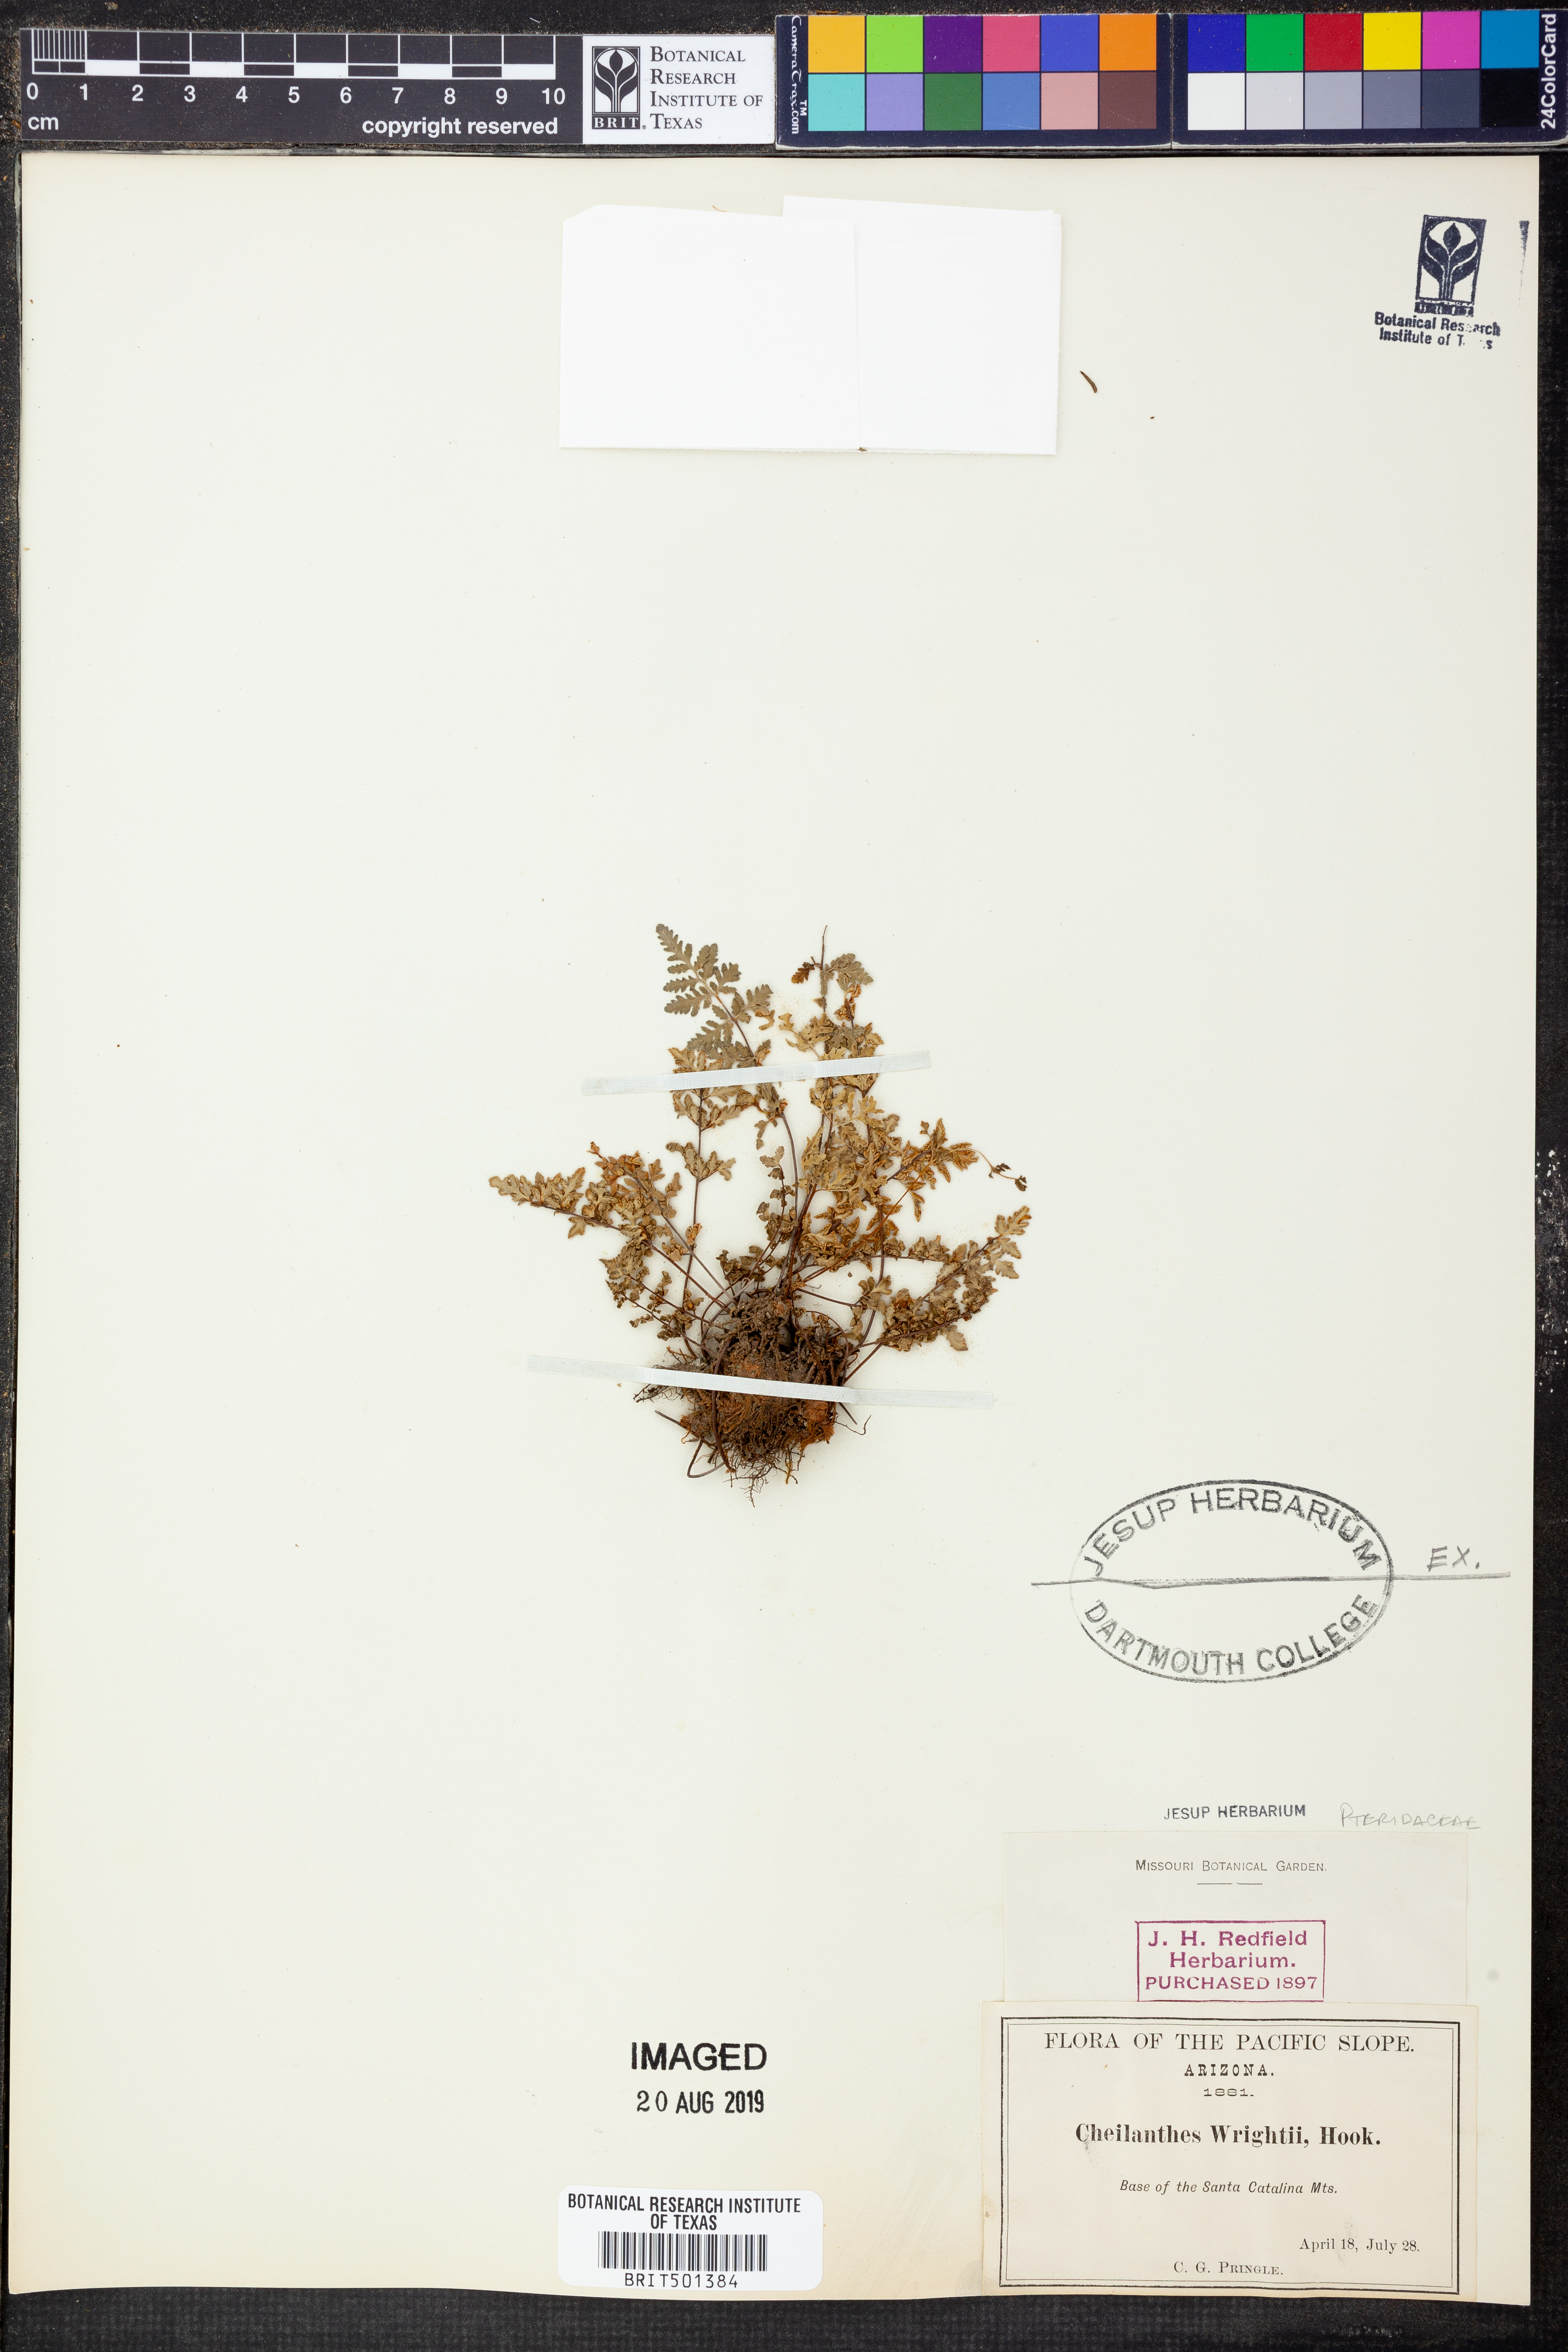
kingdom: Plantae
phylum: Tracheophyta
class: Polypodiopsida
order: Polypodiales
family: Pteridaceae
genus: Myriopteris
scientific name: Myriopteris wrightii
